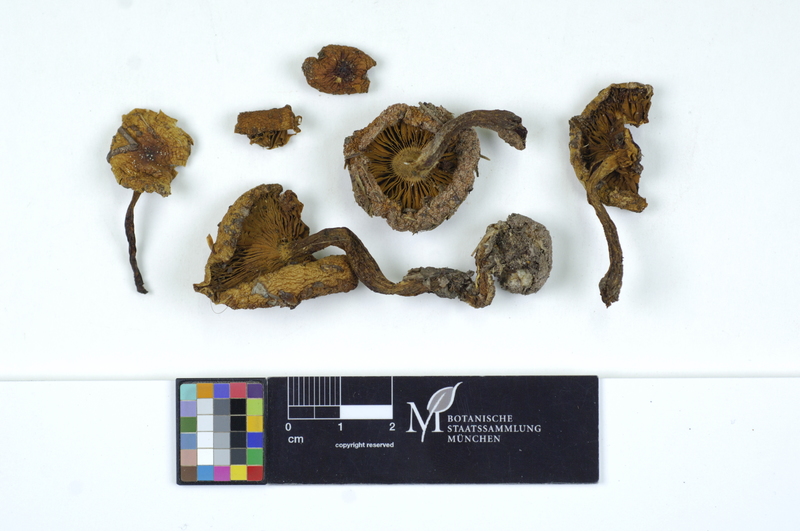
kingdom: Plantae
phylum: Tracheophyta
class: Pinopsida
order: Pinales
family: Pinaceae
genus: Pinus
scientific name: Pinus
